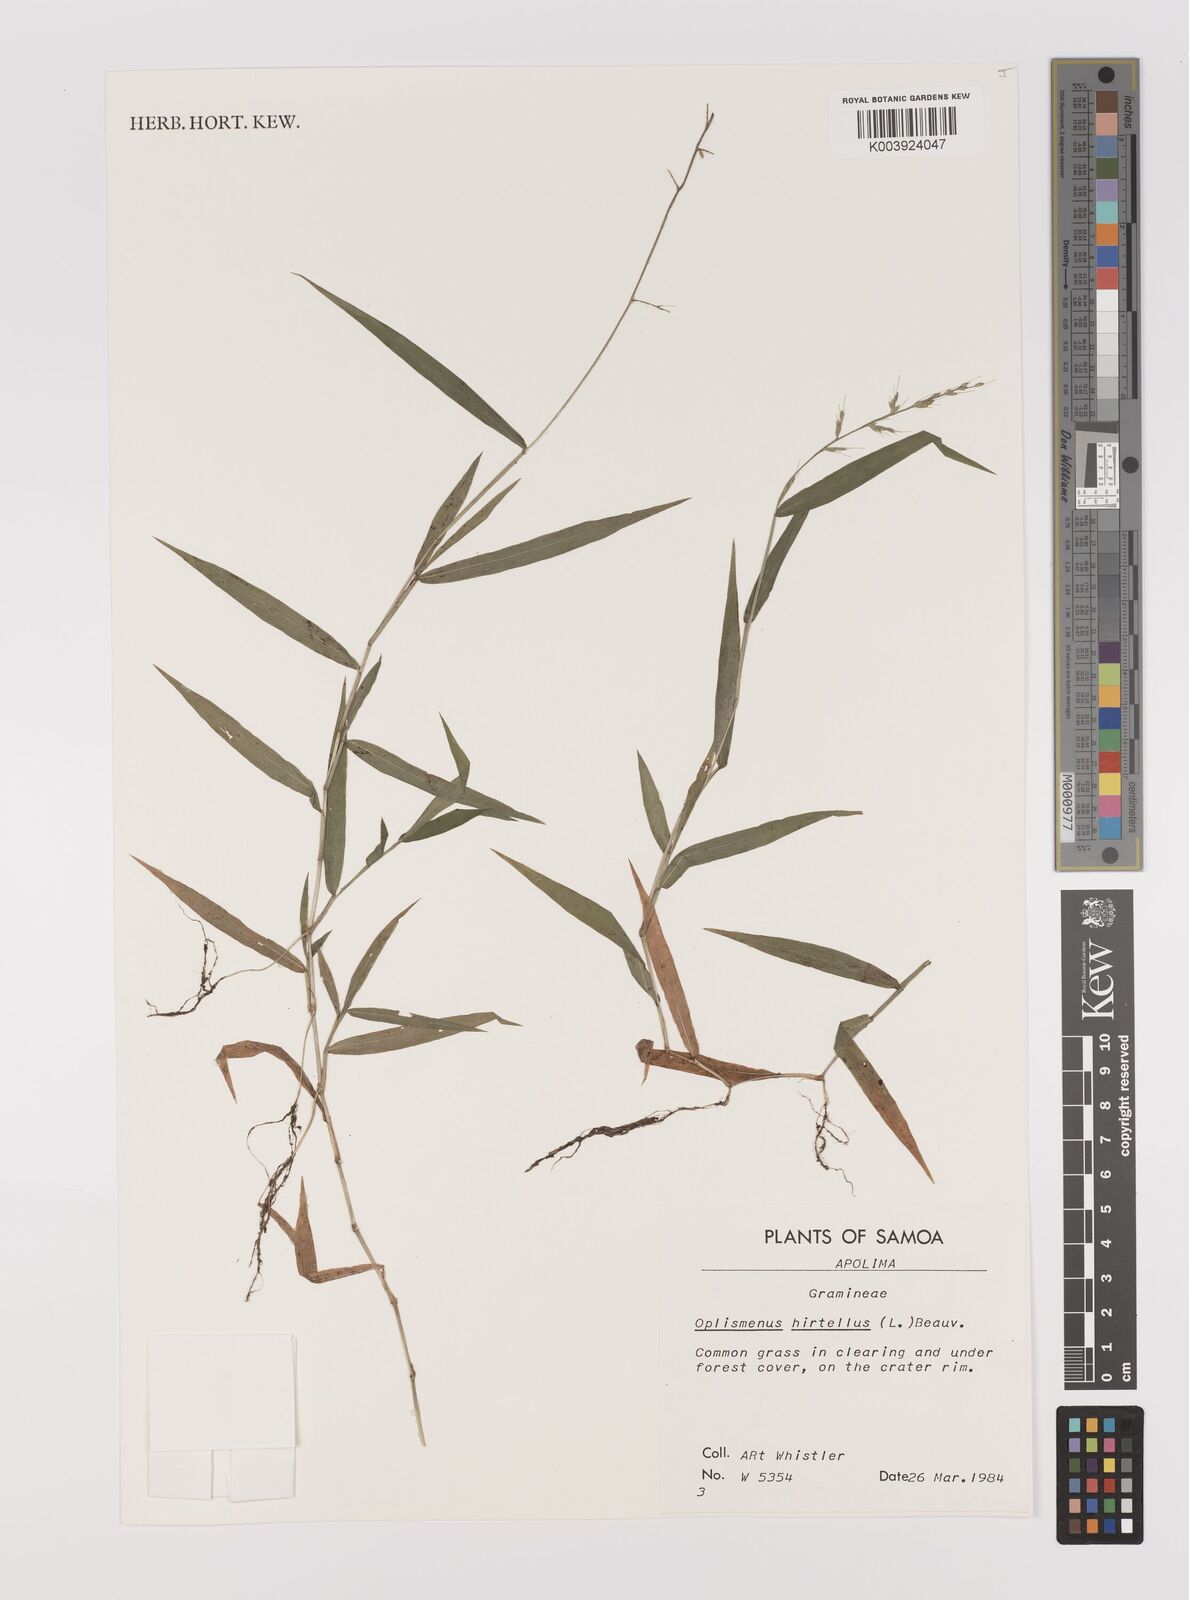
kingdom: Plantae
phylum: Tracheophyta
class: Liliopsida
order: Poales
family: Poaceae
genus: Oplismenus
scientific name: Oplismenus hirtellus
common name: Basketgrass
